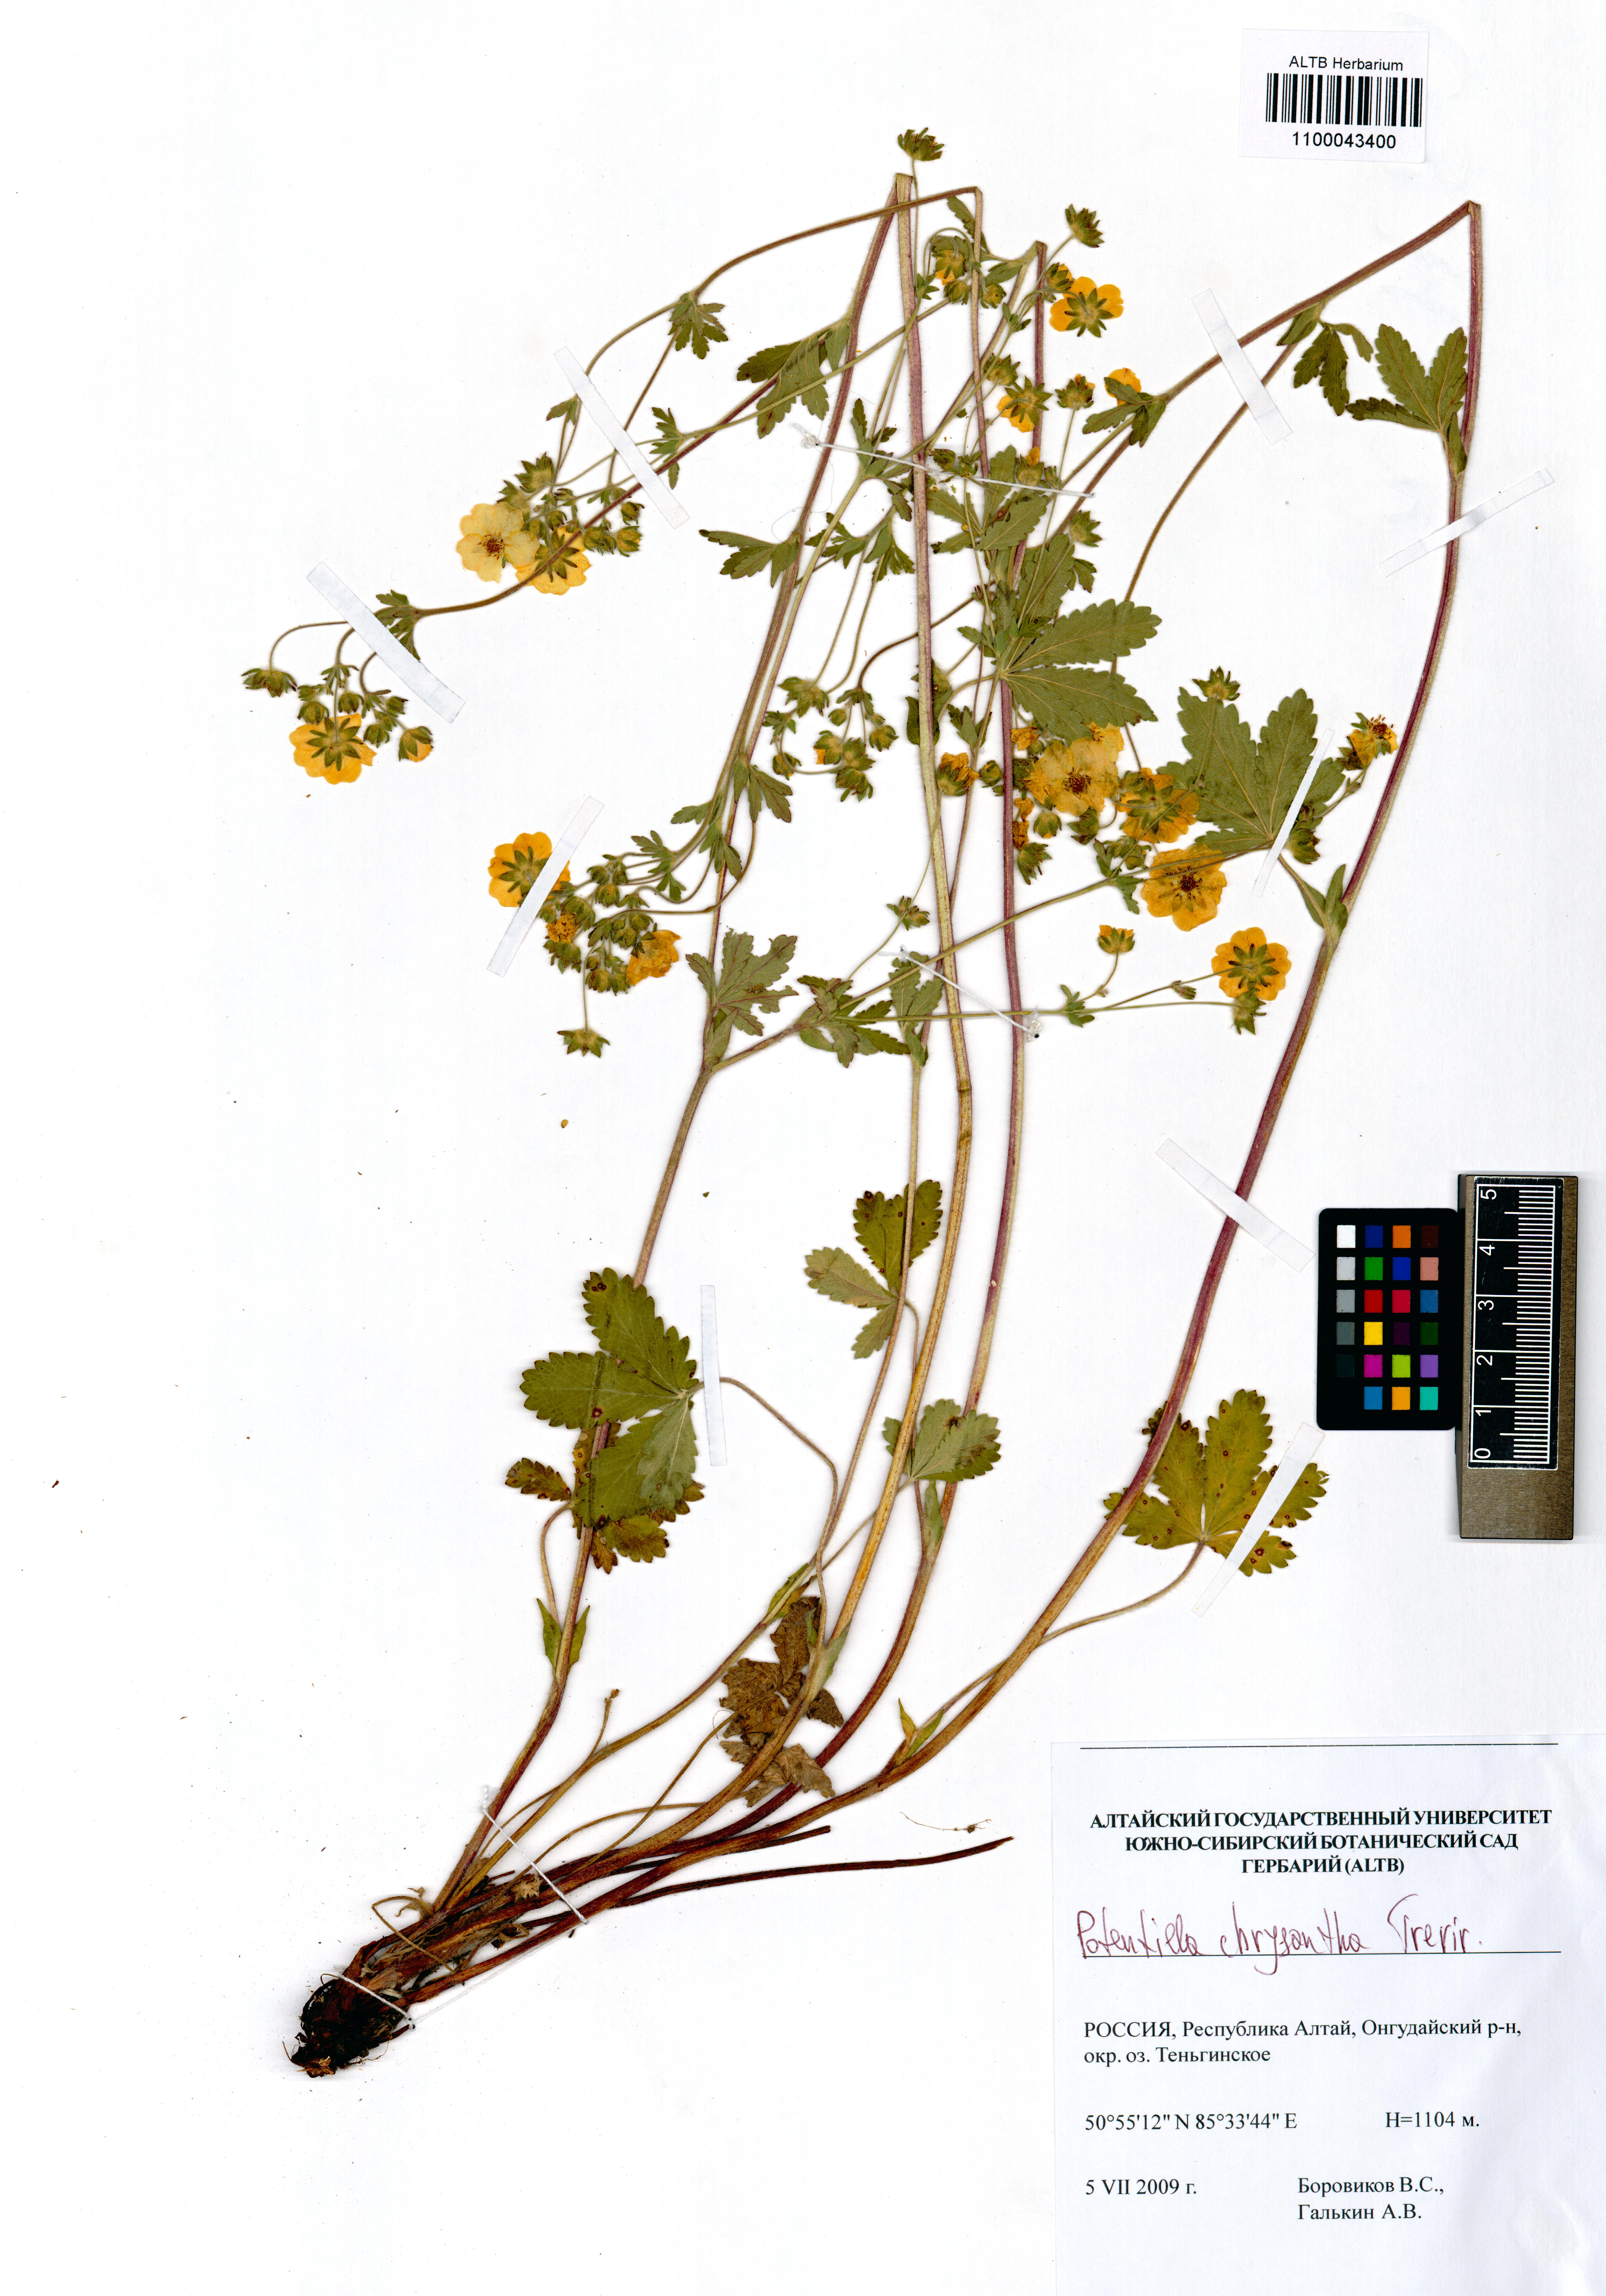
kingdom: Plantae
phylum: Tracheophyta
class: Magnoliopsida
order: Rosales
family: Rosaceae
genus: Potentilla
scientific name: Potentilla chrysantha
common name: Thuringian cinquefoil
